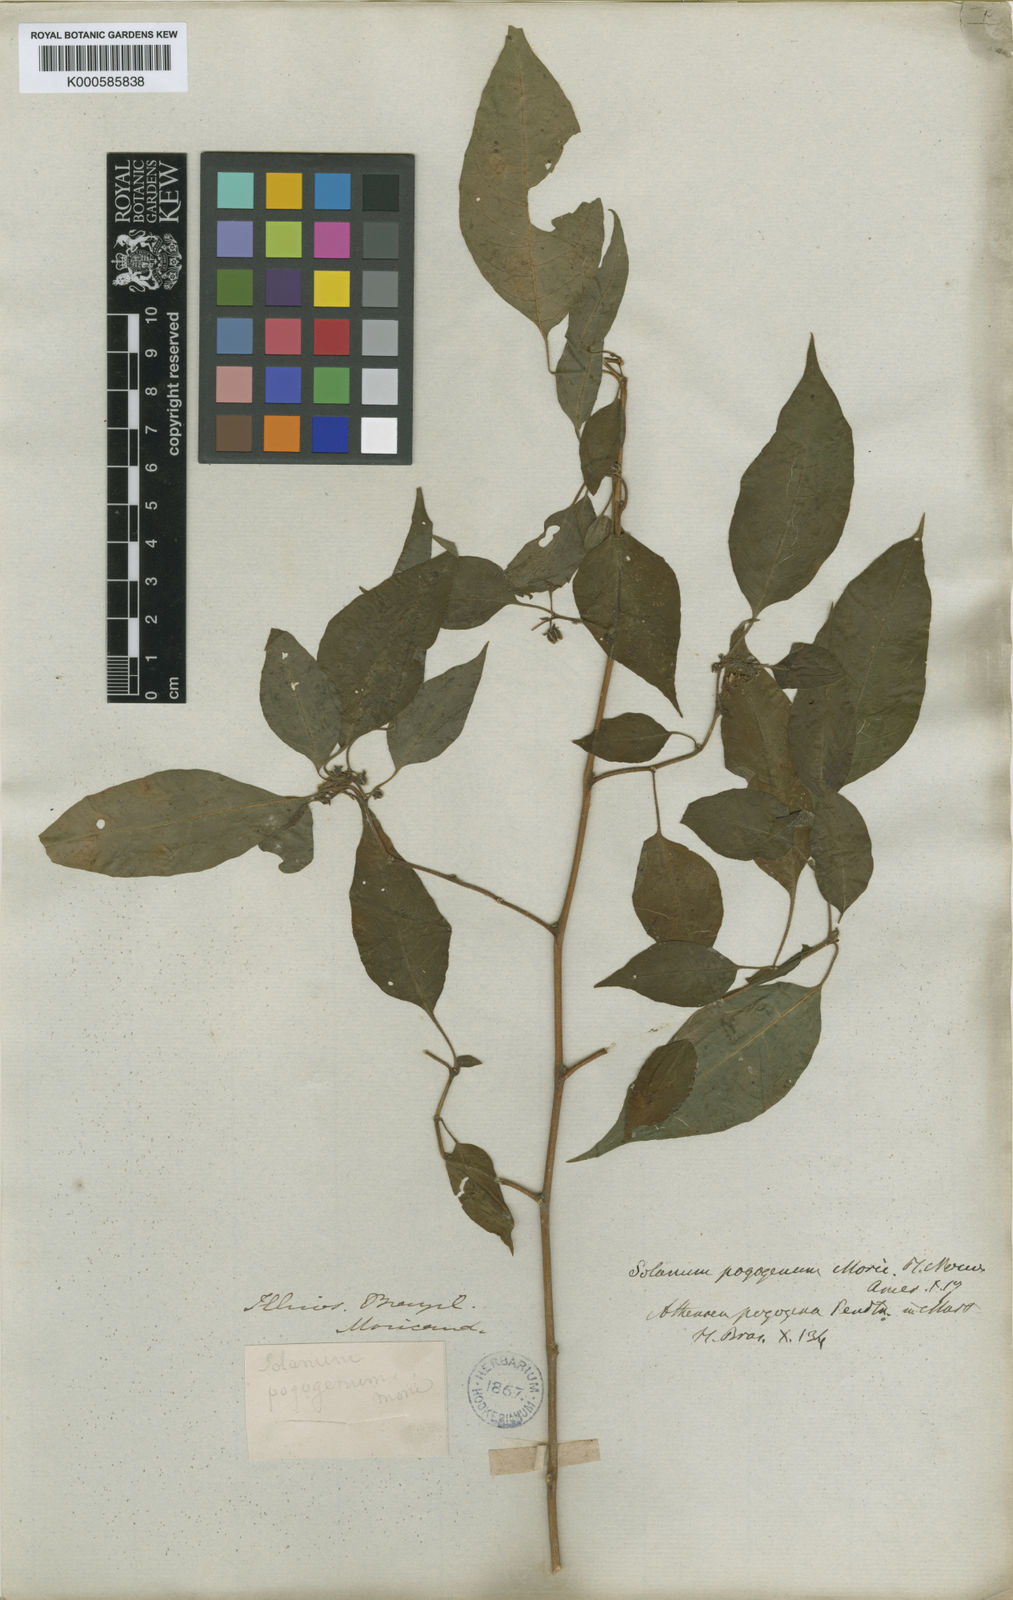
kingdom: Plantae
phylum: Tracheophyta
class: Magnoliopsida
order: Solanales
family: Solanaceae
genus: Athenaea
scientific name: Athenaea pogogena
